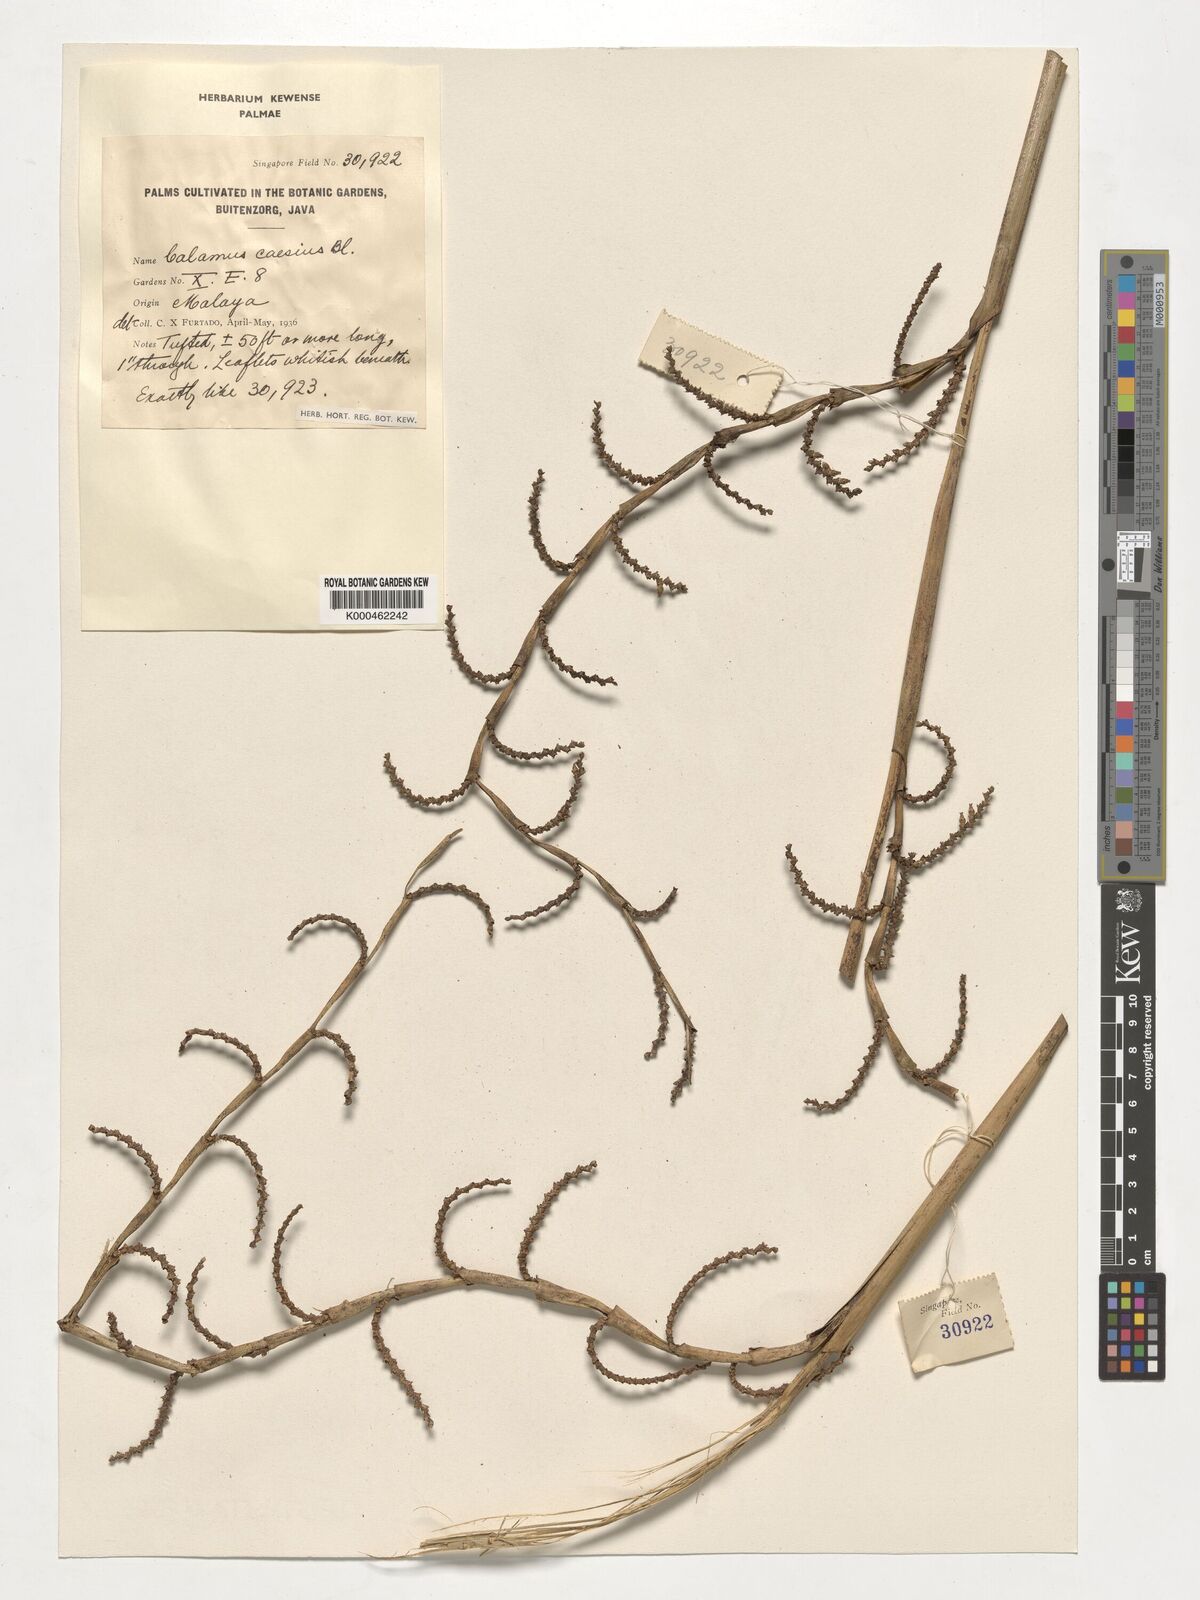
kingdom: Plantae
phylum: Tracheophyta
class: Liliopsida
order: Arecales
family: Arecaceae
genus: Calamus
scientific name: Calamus caesius
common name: Rattan palm
